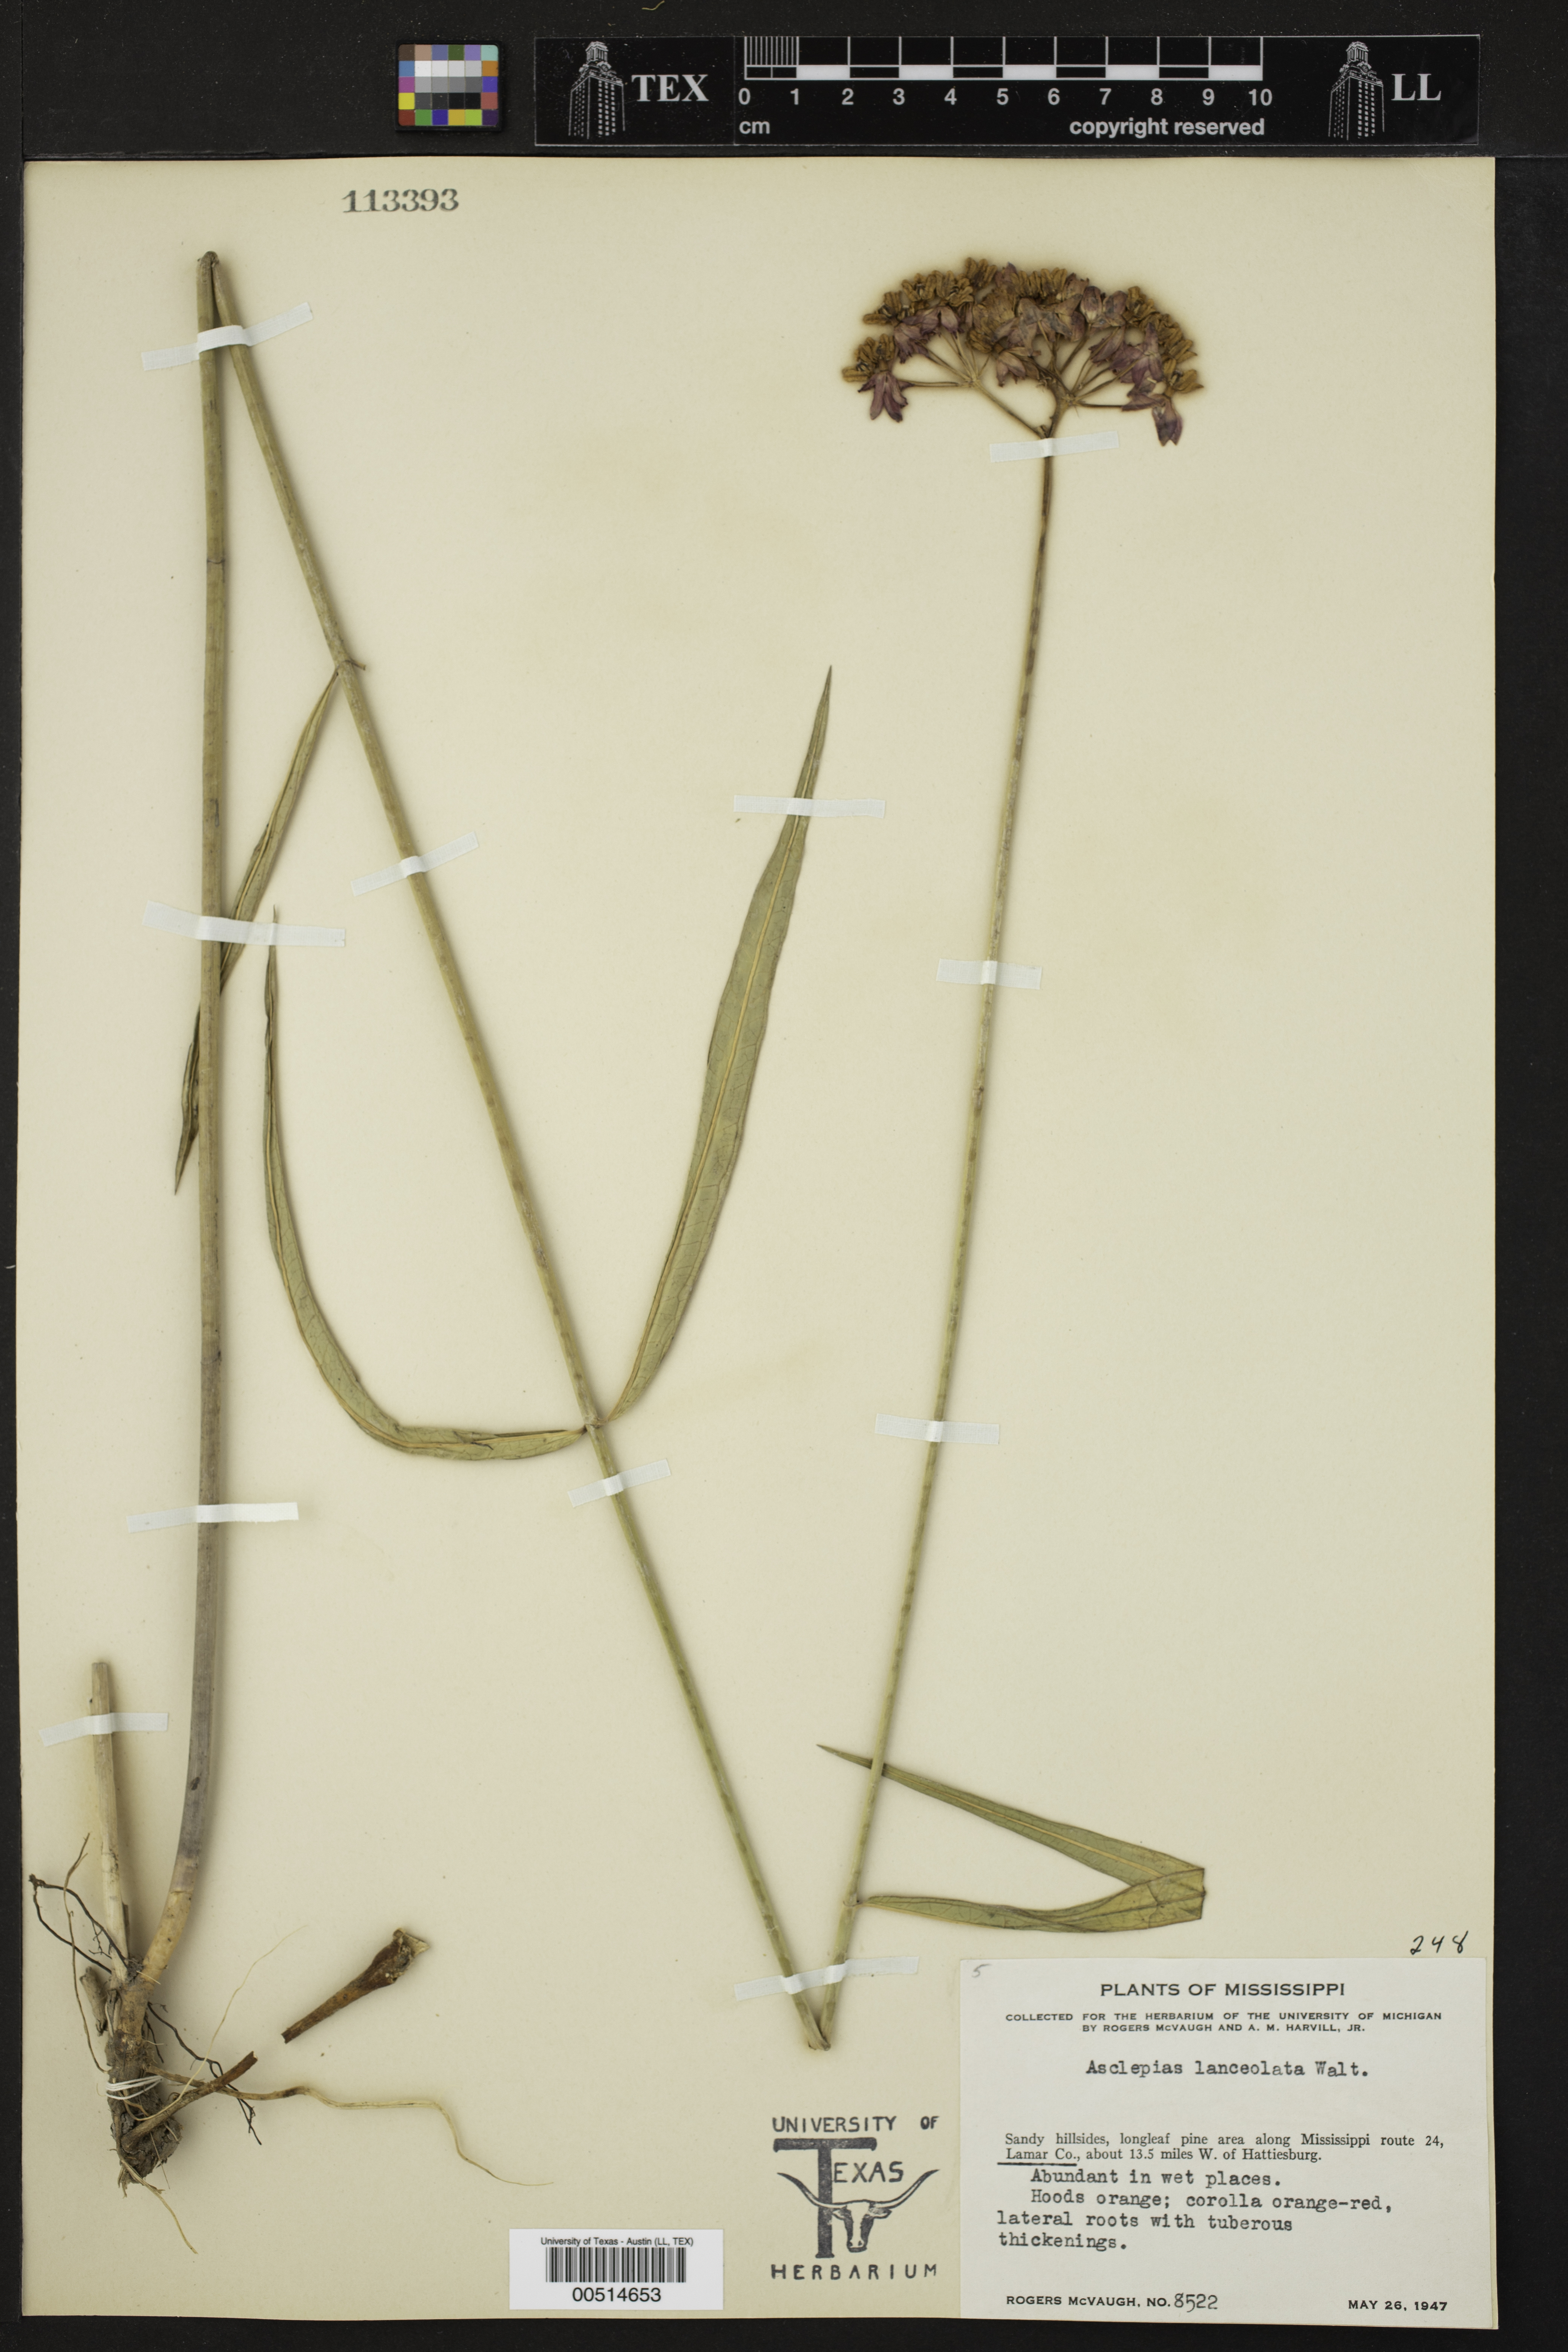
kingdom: Plantae
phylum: Tracheophyta
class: Magnoliopsida
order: Gentianales
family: Apocynaceae
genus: Asclepias
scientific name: Asclepias lanceolata
